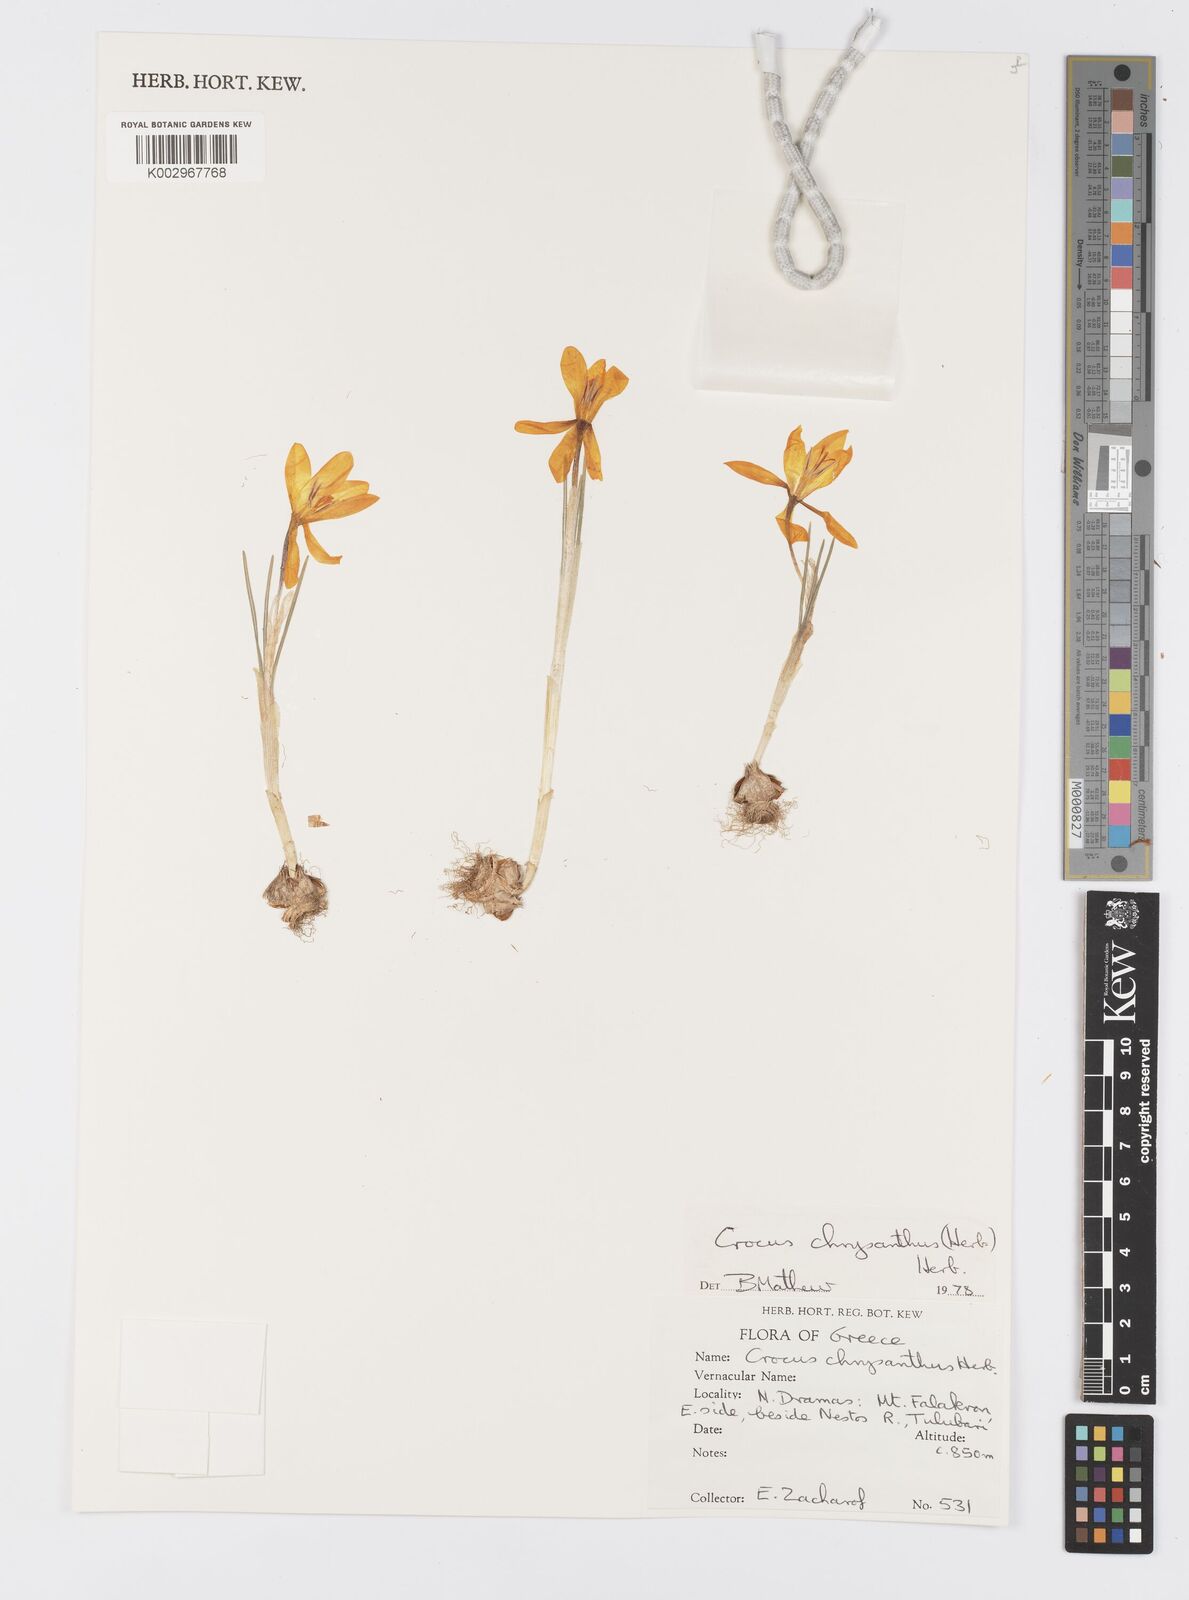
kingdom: Plantae
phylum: Tracheophyta
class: Liliopsida
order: Asparagales
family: Iridaceae
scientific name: Iridaceae
